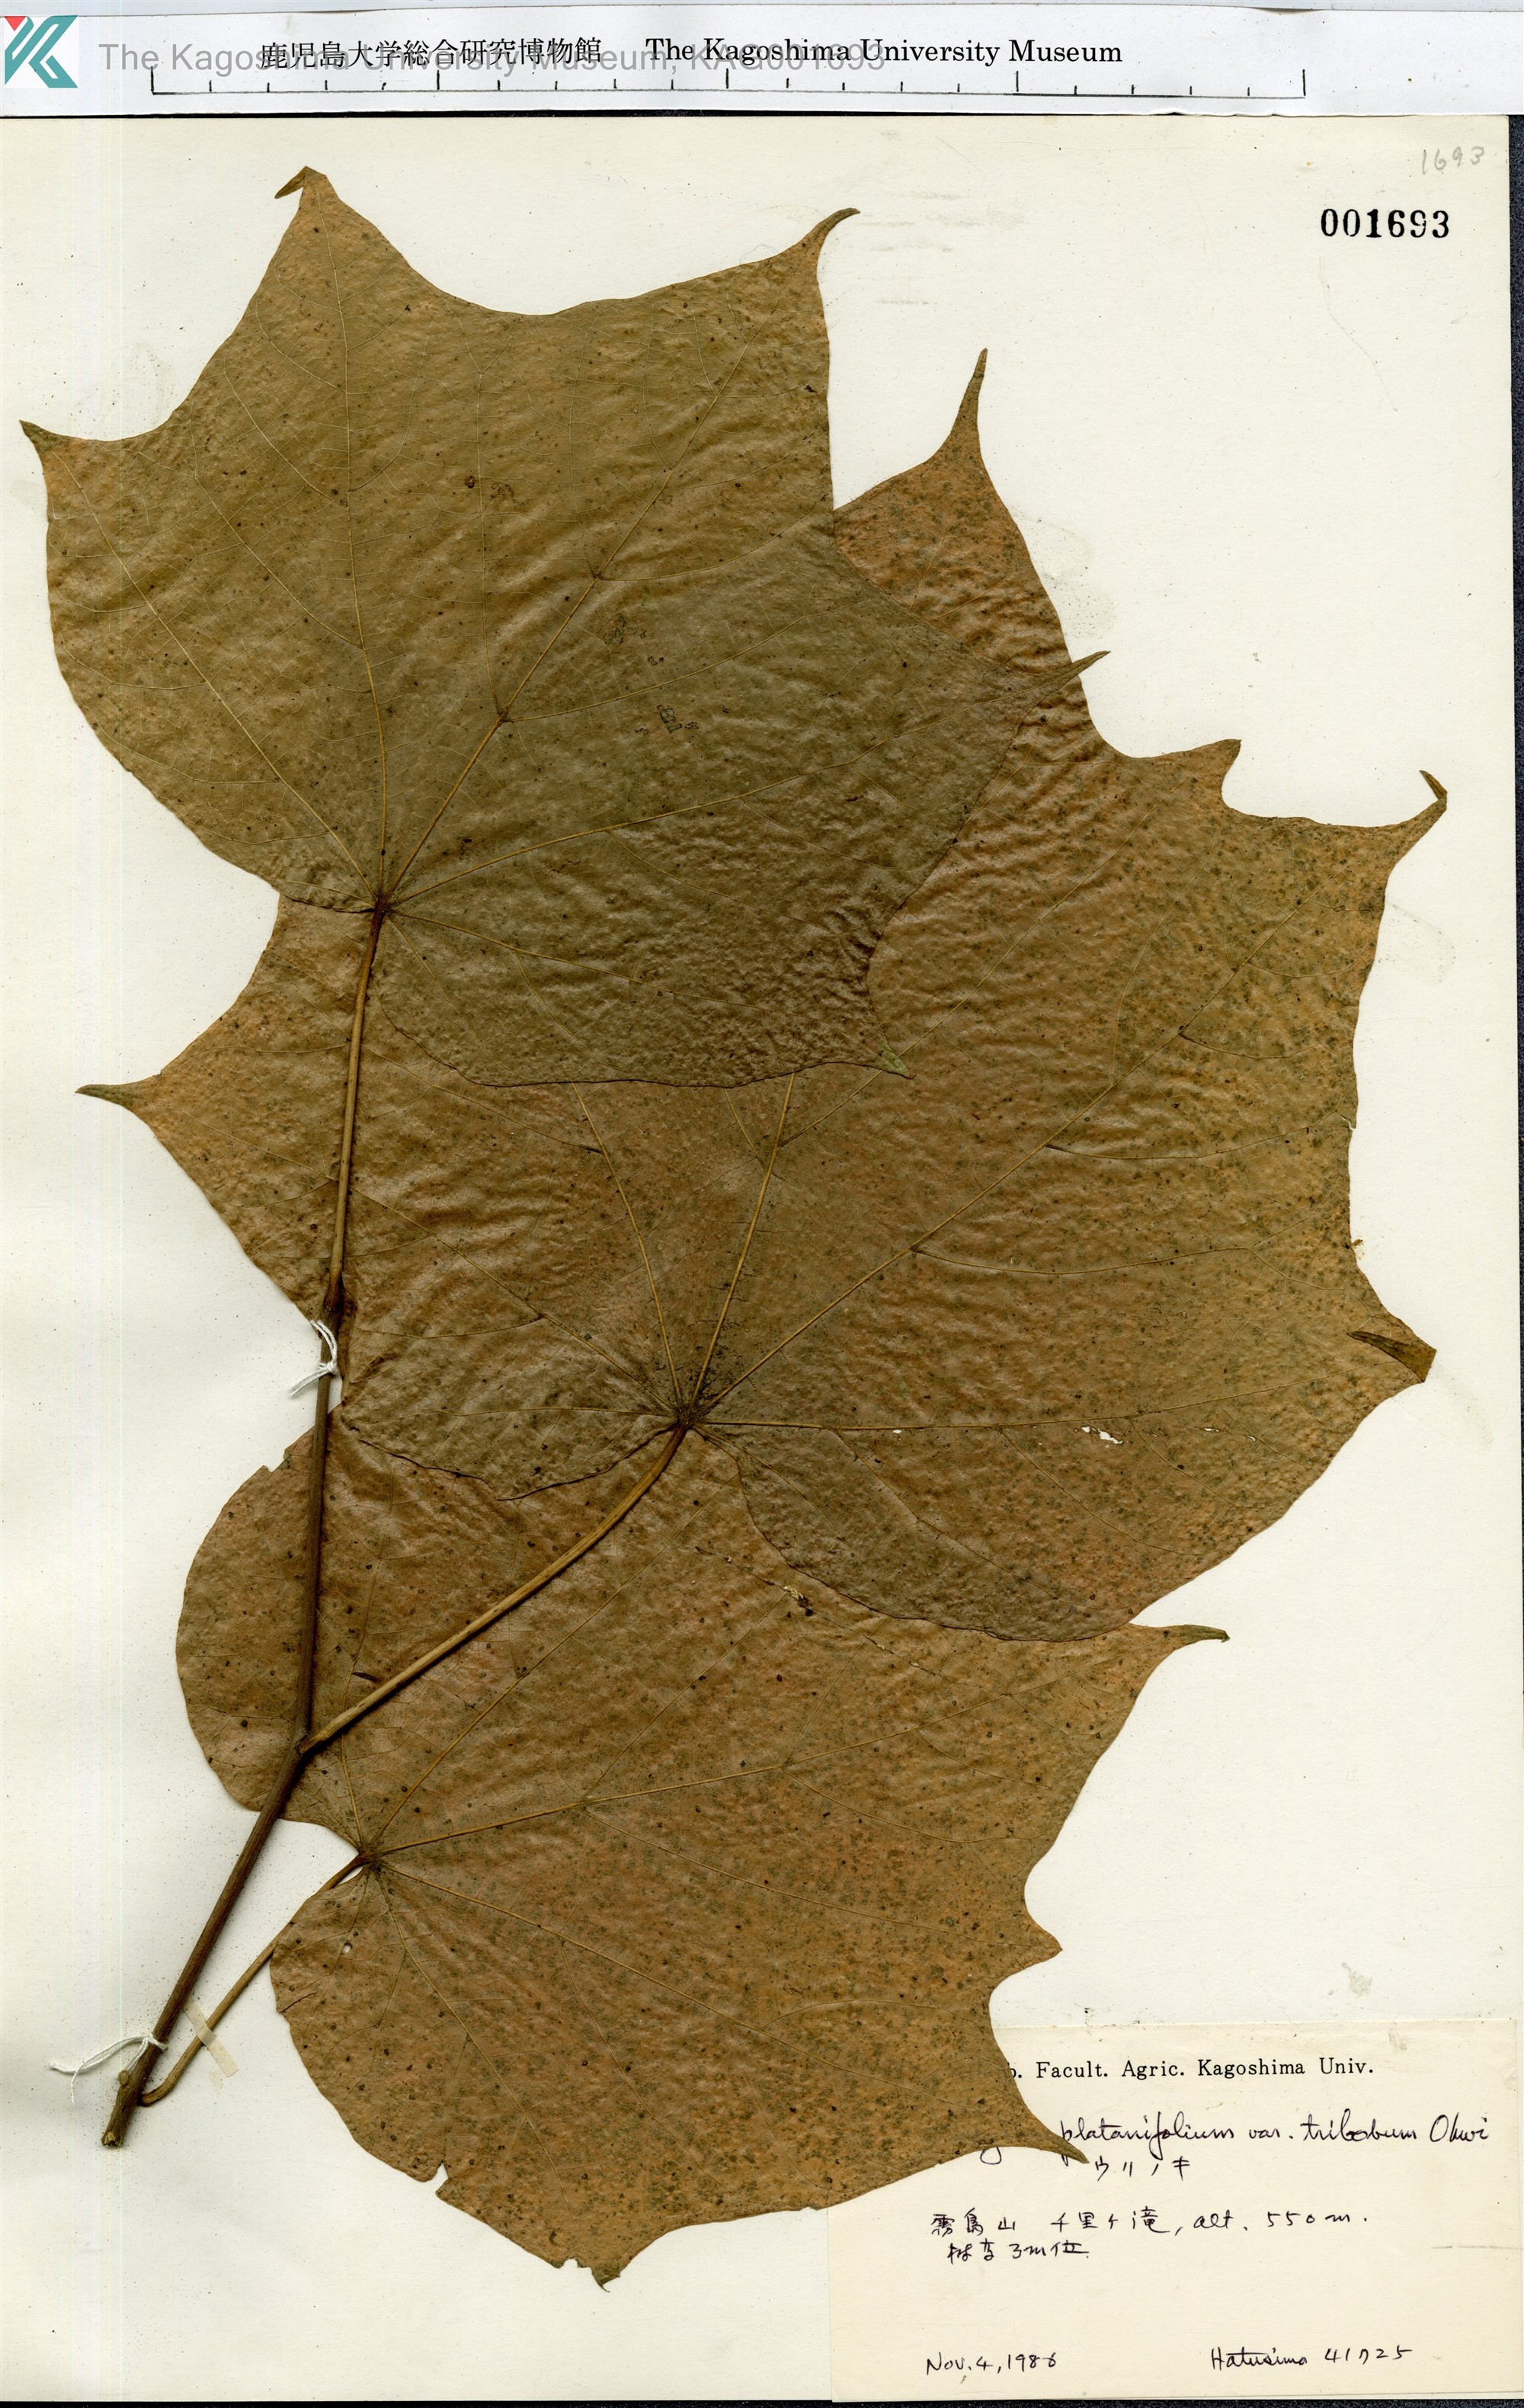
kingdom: Plantae
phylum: Tracheophyta
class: Magnoliopsida
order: Cornales
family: Cornaceae
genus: Alangium
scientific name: Alangium platanifolium
